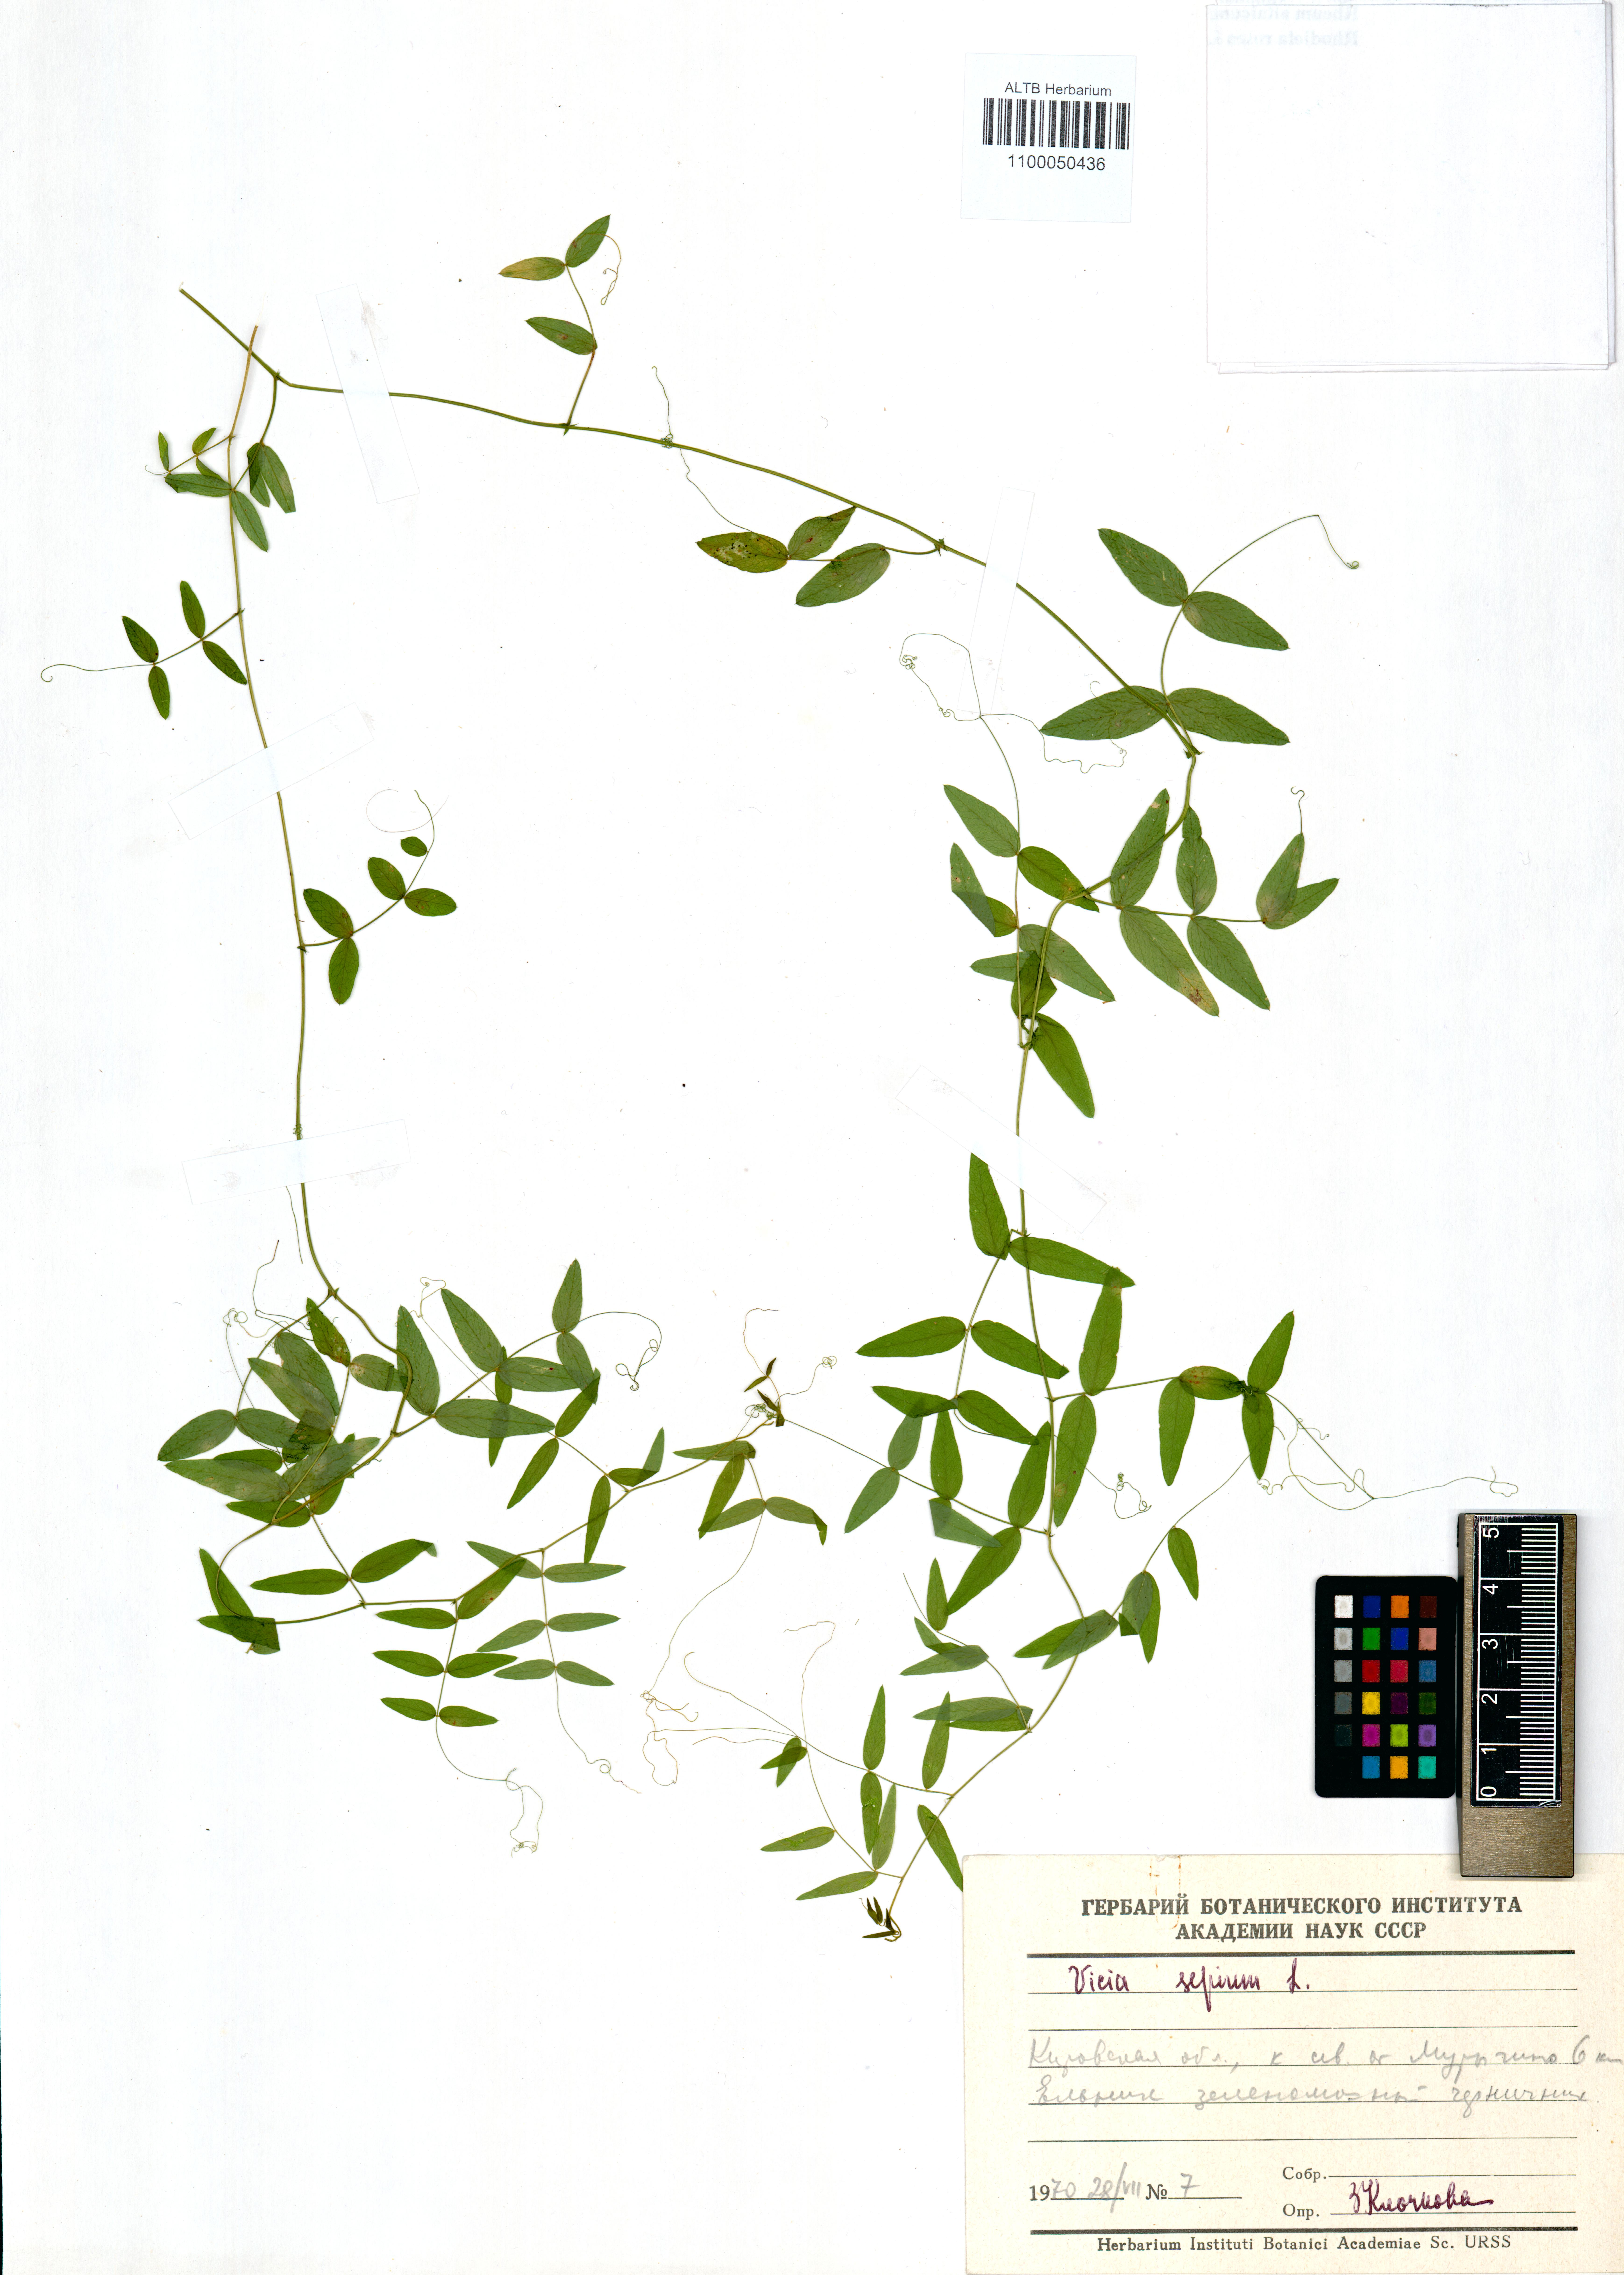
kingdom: Plantae
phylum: Tracheophyta
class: Magnoliopsida
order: Fabales
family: Fabaceae
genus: Vicia
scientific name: Vicia sepium
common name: Bush vetch
